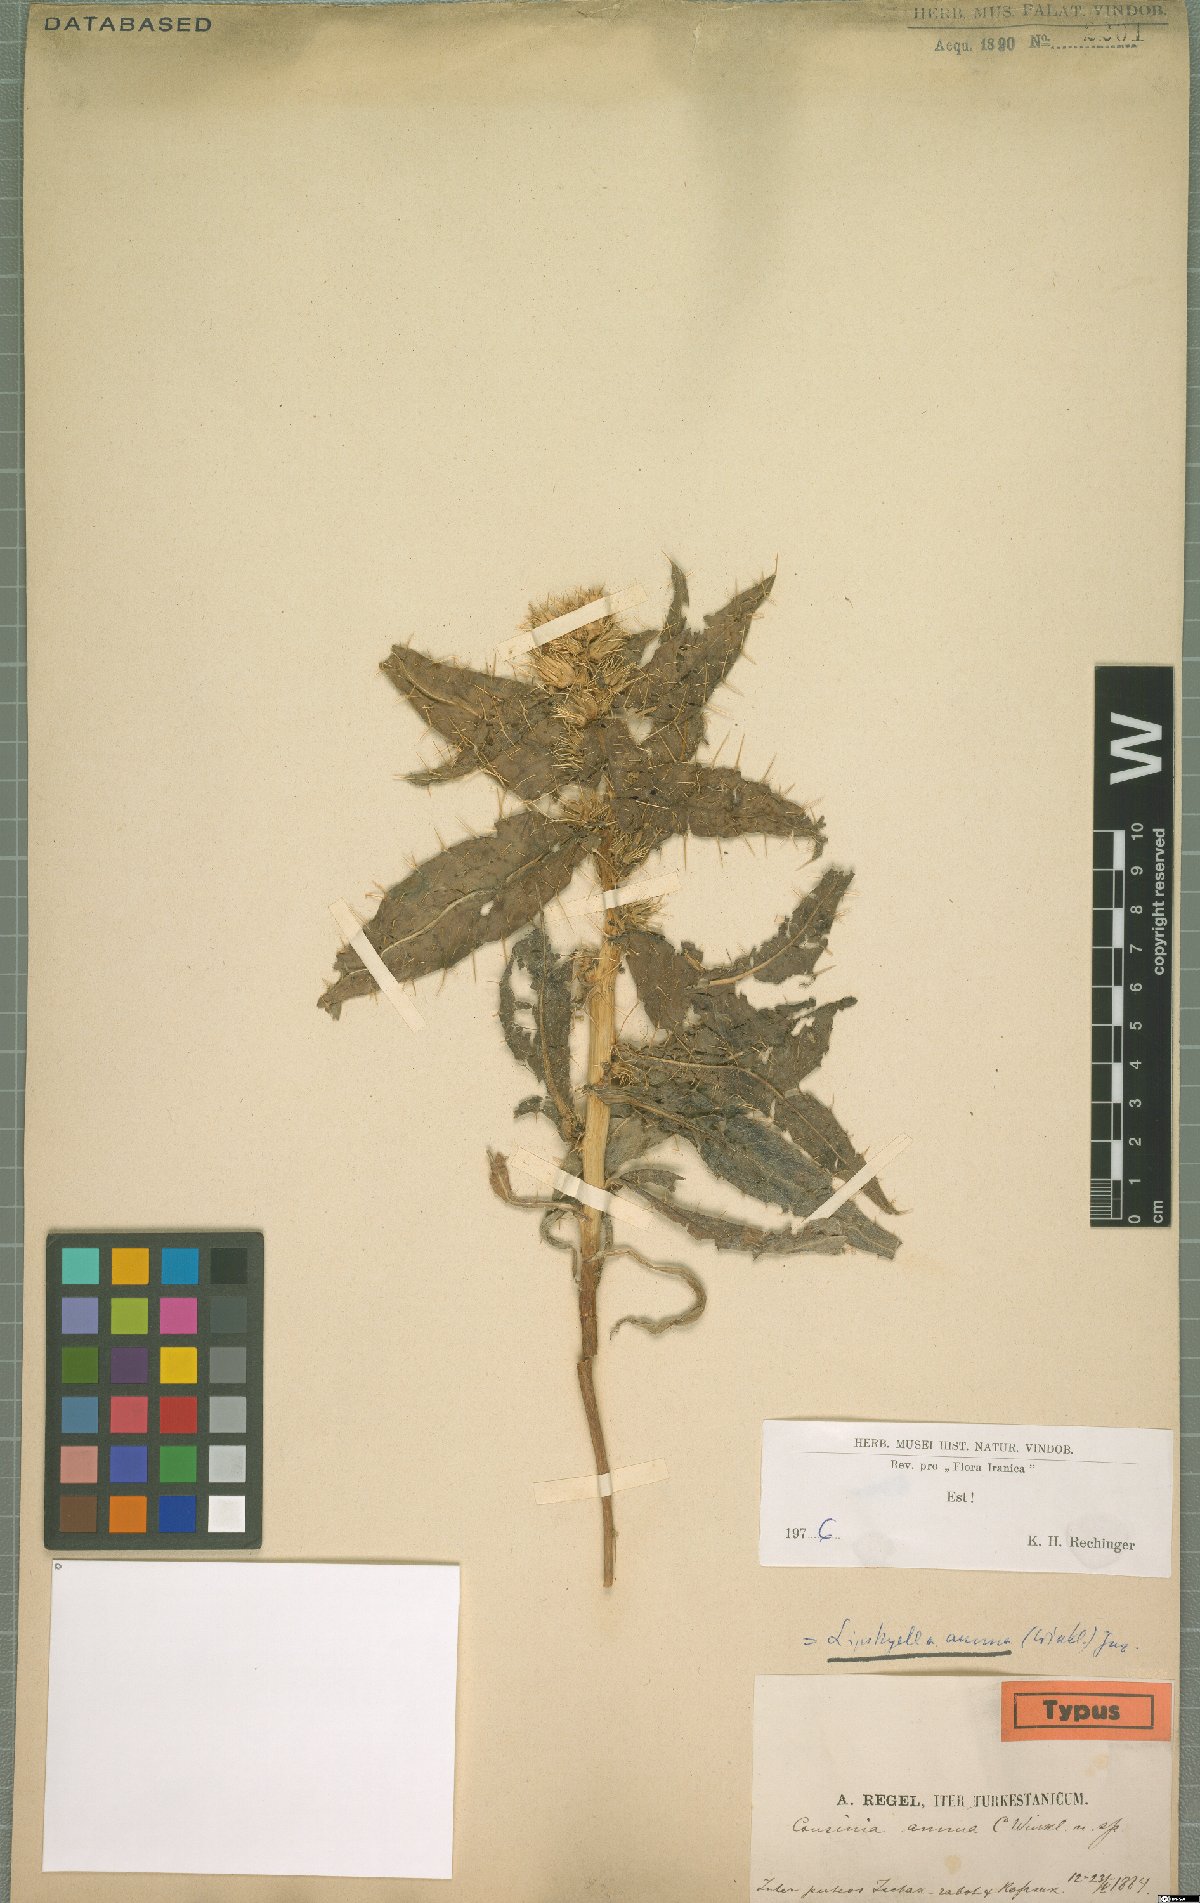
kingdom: Plantae
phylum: Tracheophyta
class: Magnoliopsida
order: Asterales
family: Asteraceae
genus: Cousinia
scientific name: Cousinia annua
